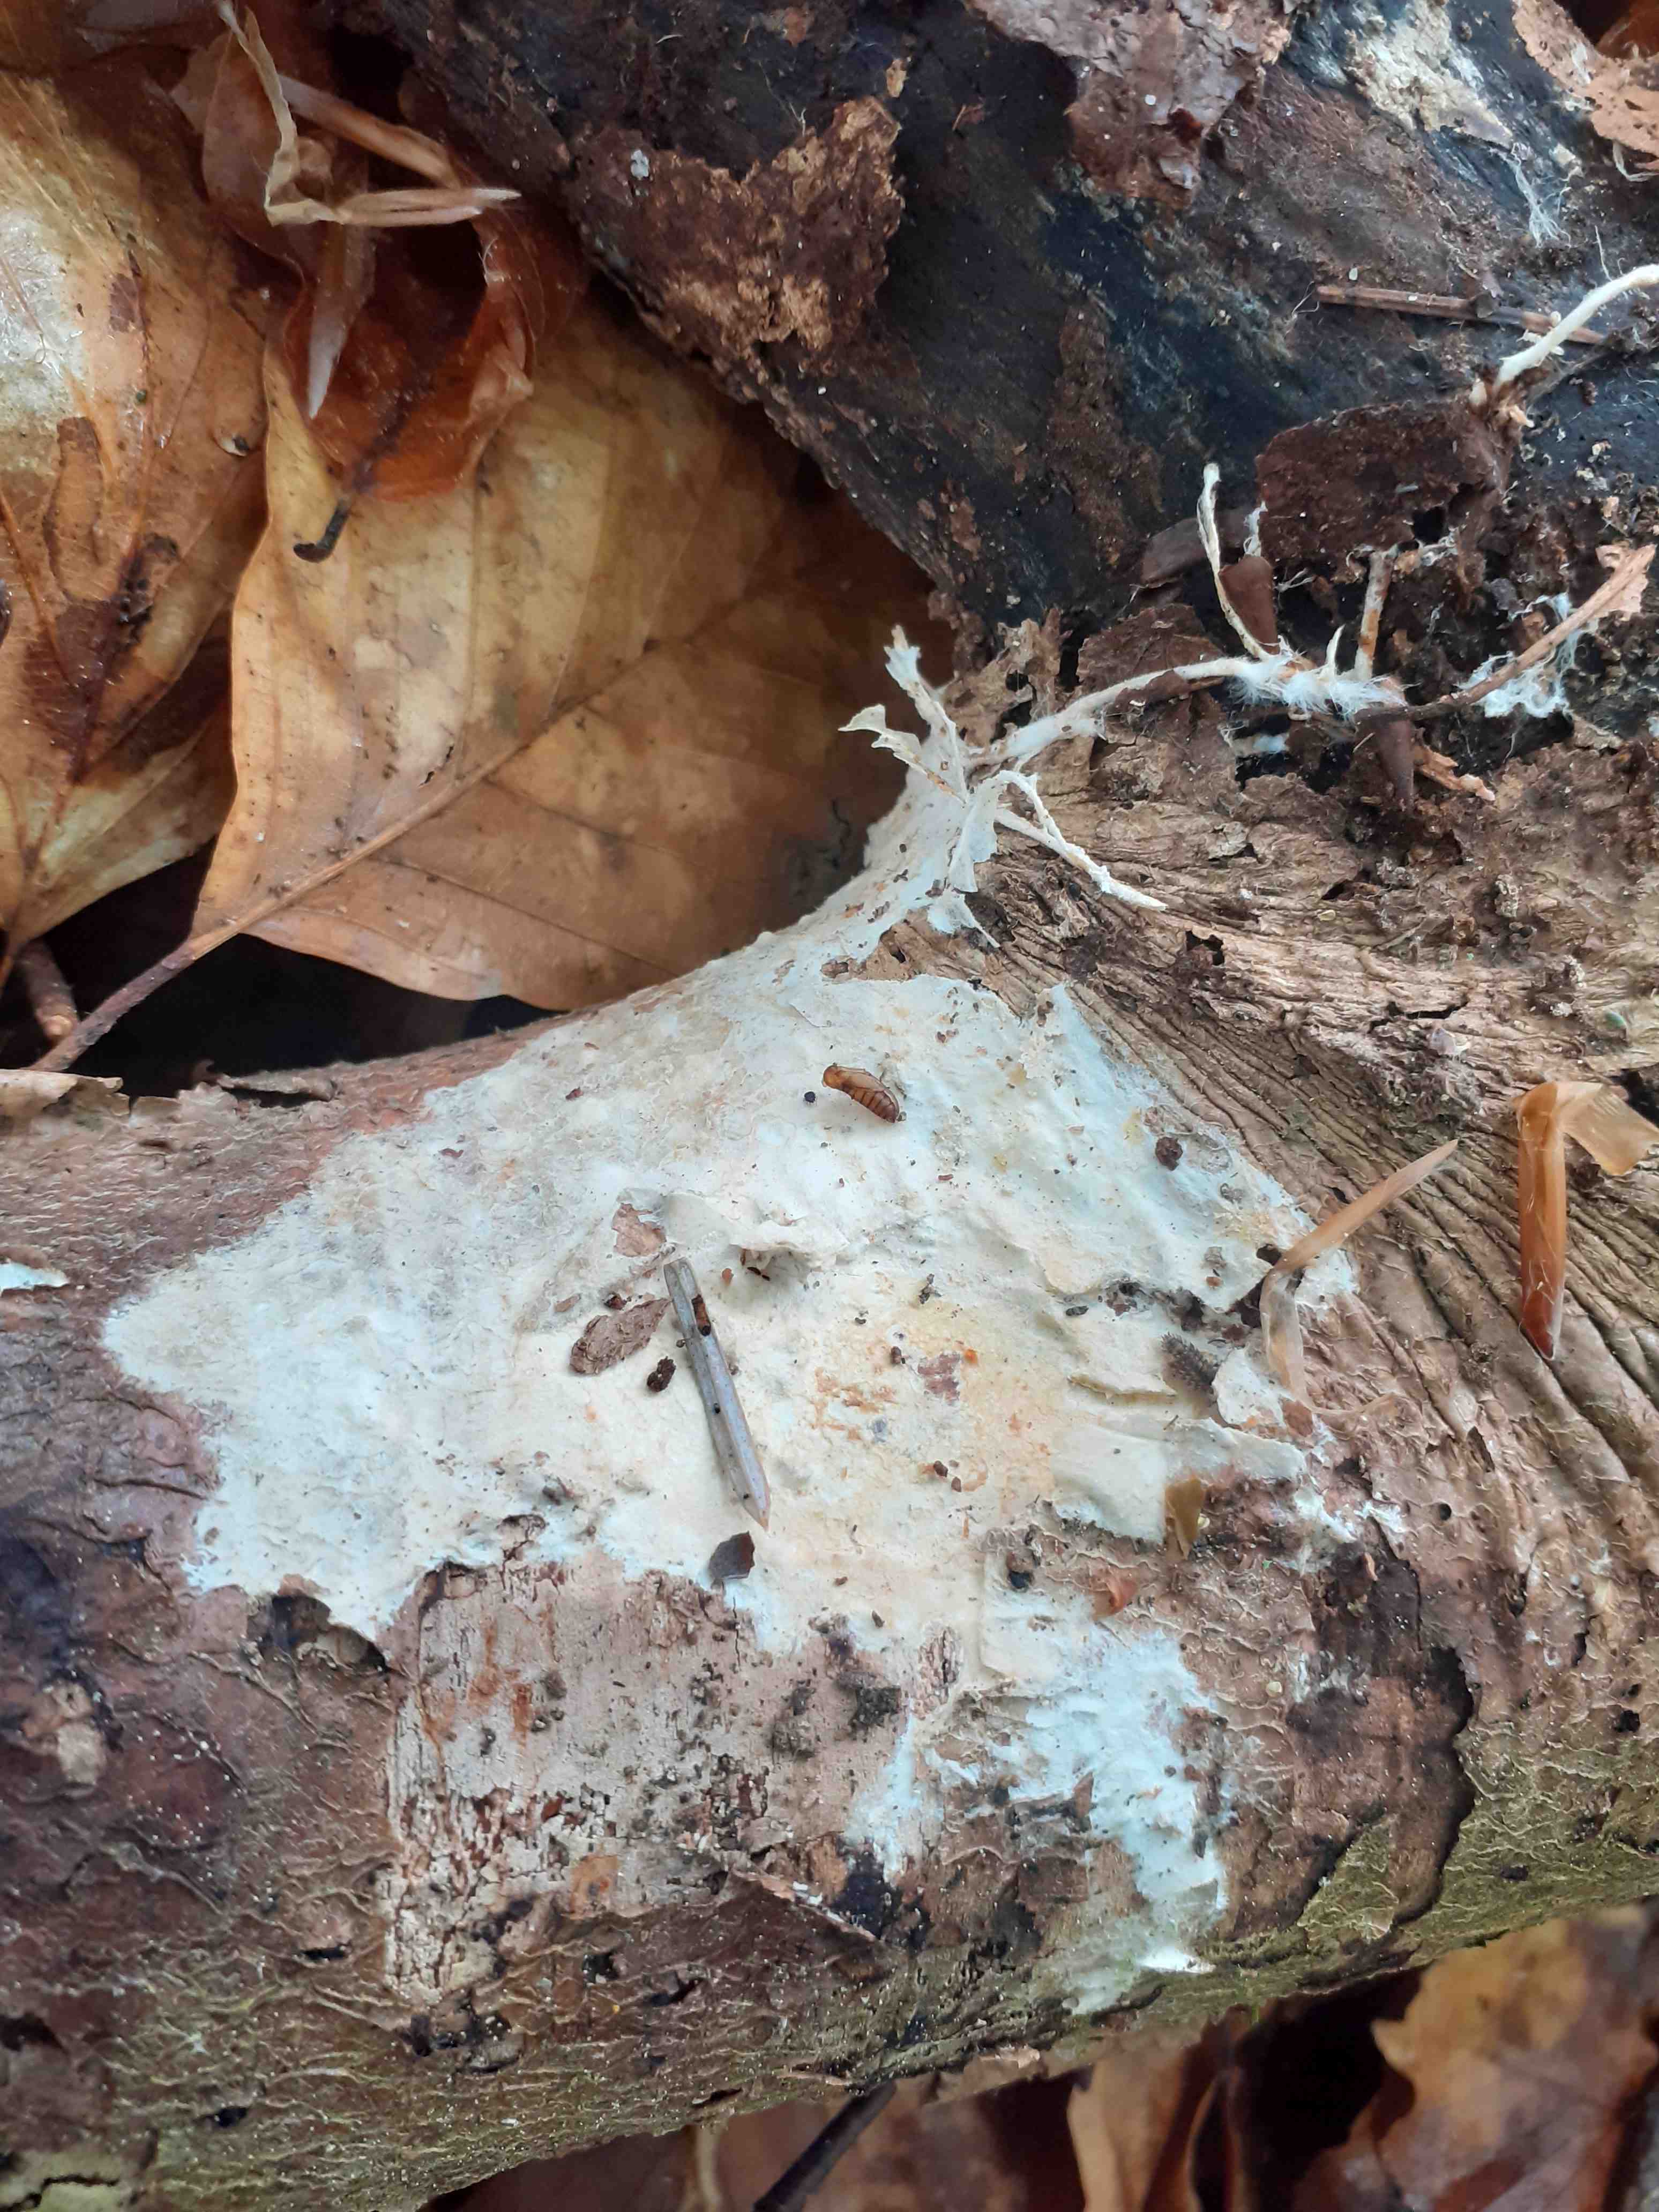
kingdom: Fungi
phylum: Basidiomycota
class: Agaricomycetes
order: Polyporales
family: Phanerochaetaceae
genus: Phanerochaete
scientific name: Phanerochaete velutina
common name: dunet randtråd
